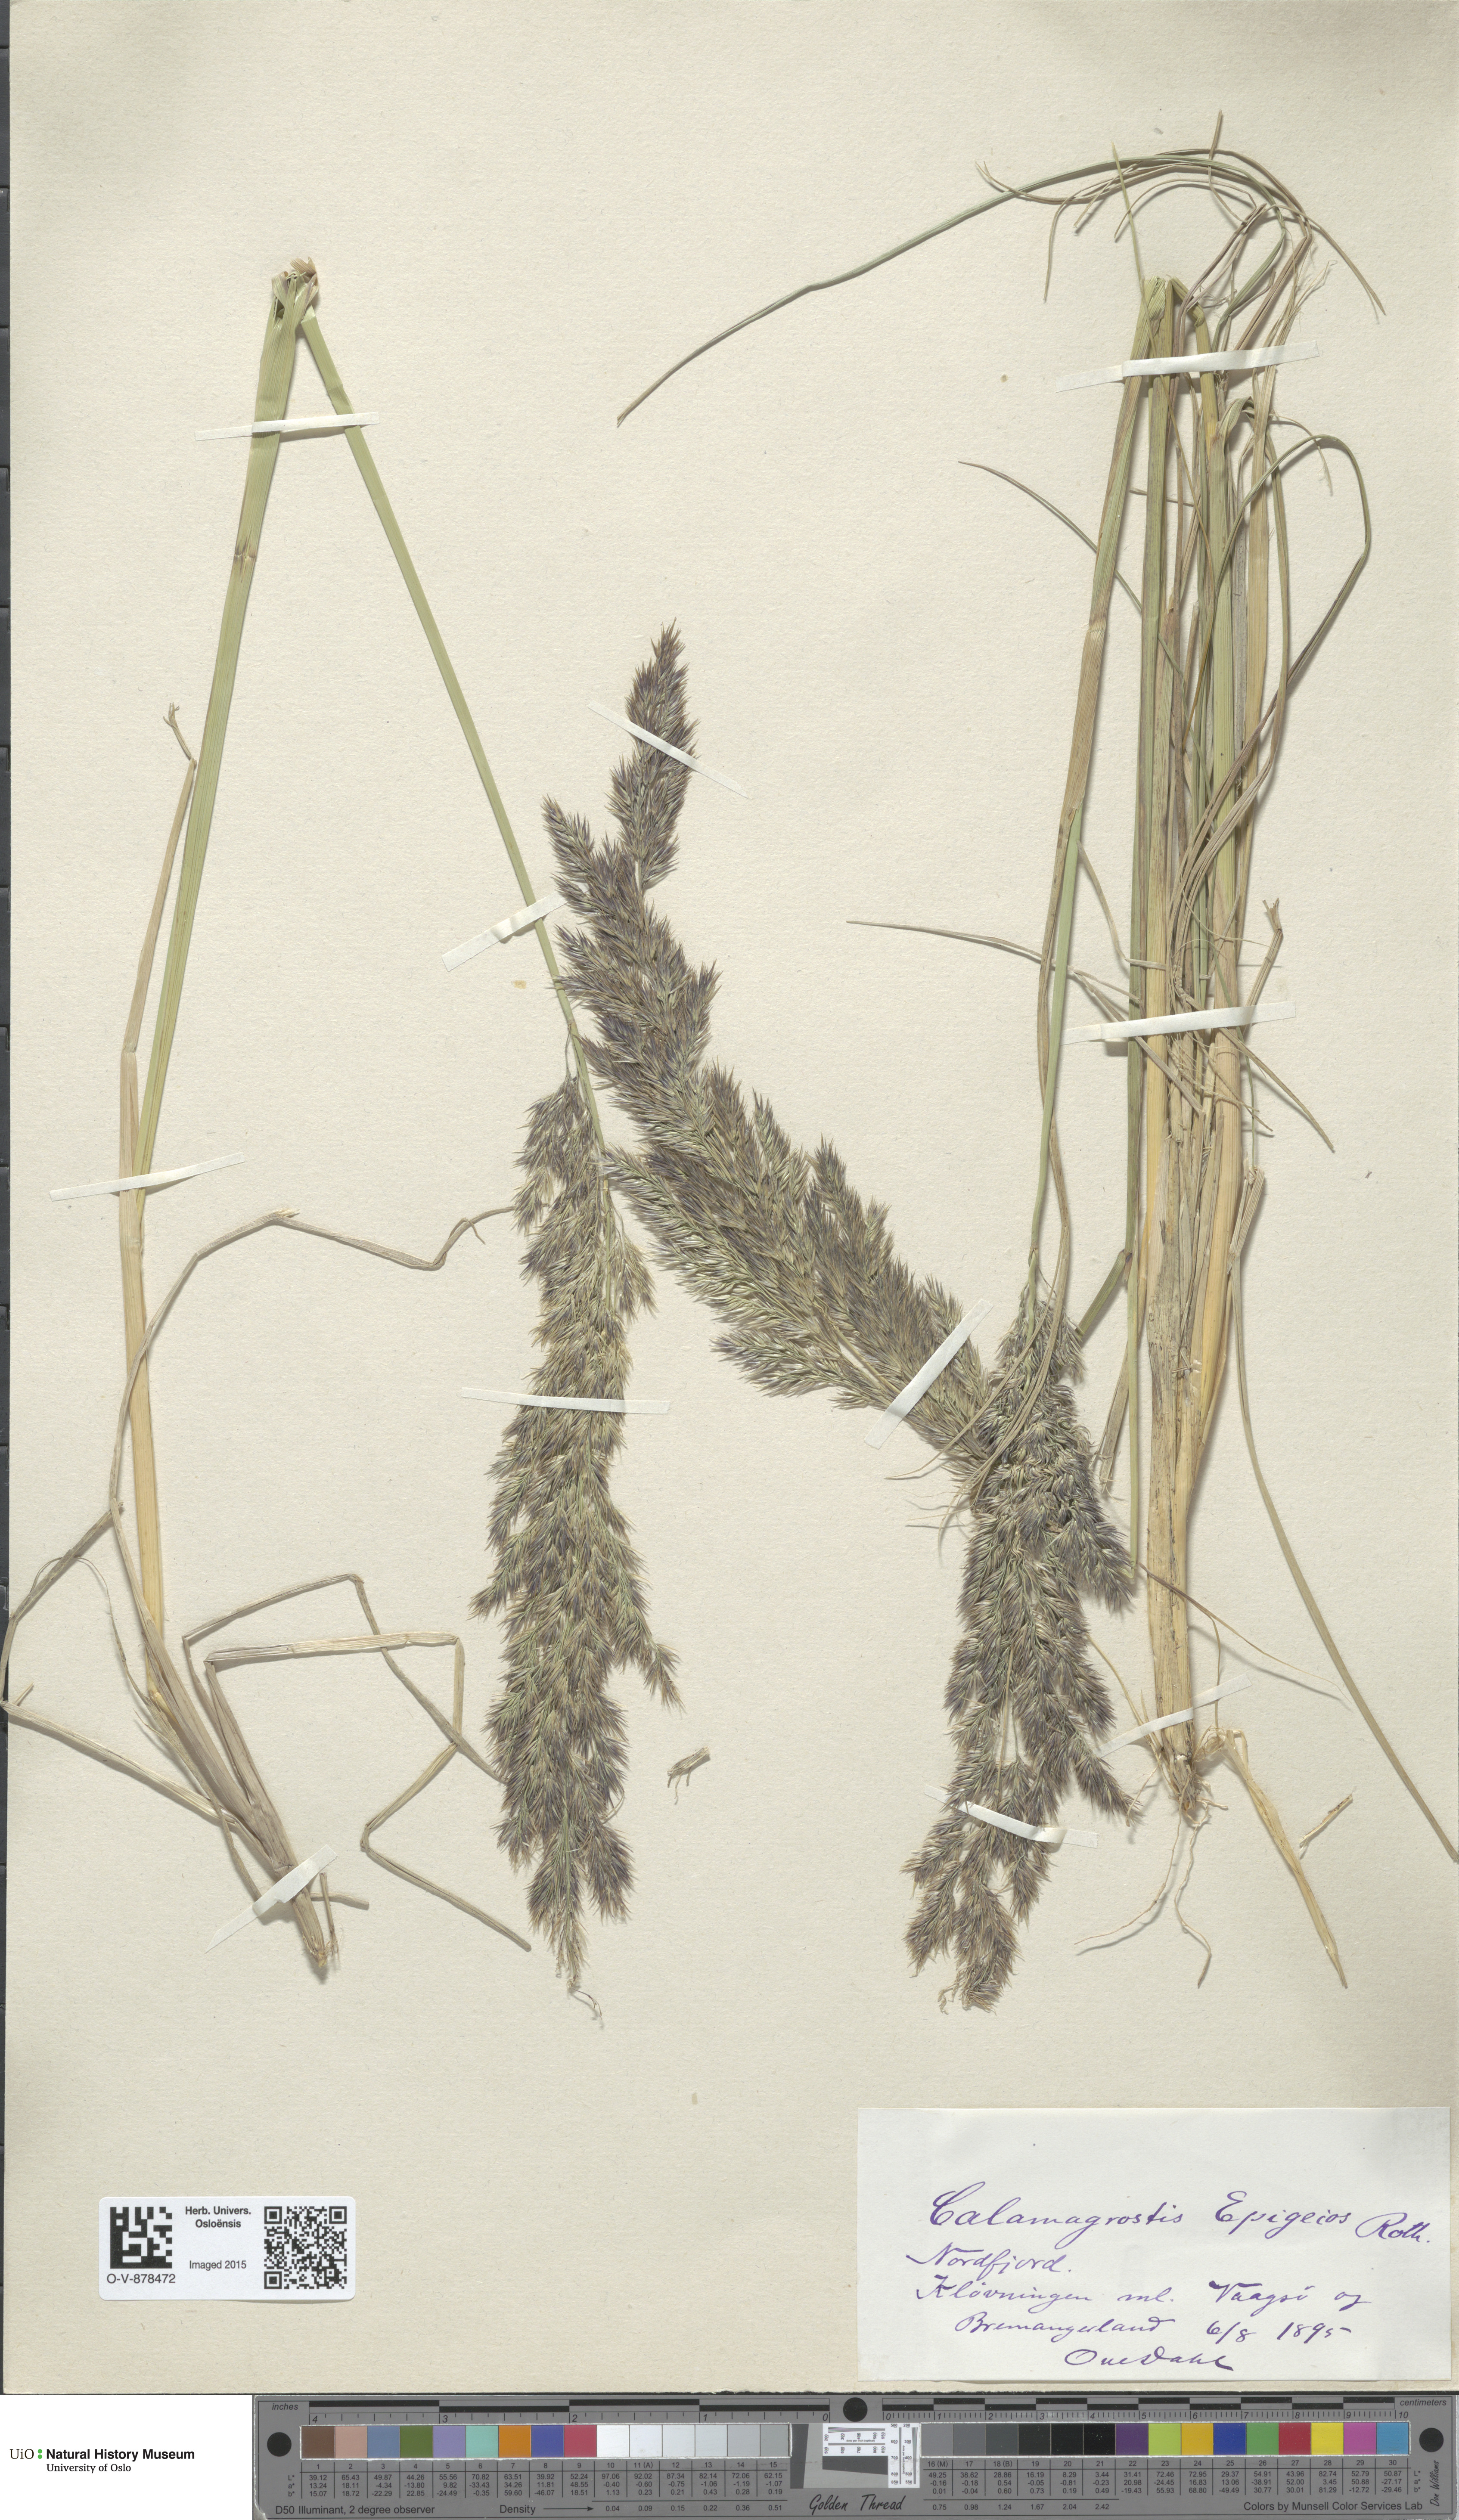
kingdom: Plantae
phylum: Tracheophyta
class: Liliopsida
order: Poales
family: Poaceae
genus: Calamagrostis
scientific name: Calamagrostis epigejos
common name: Wood small-reed
